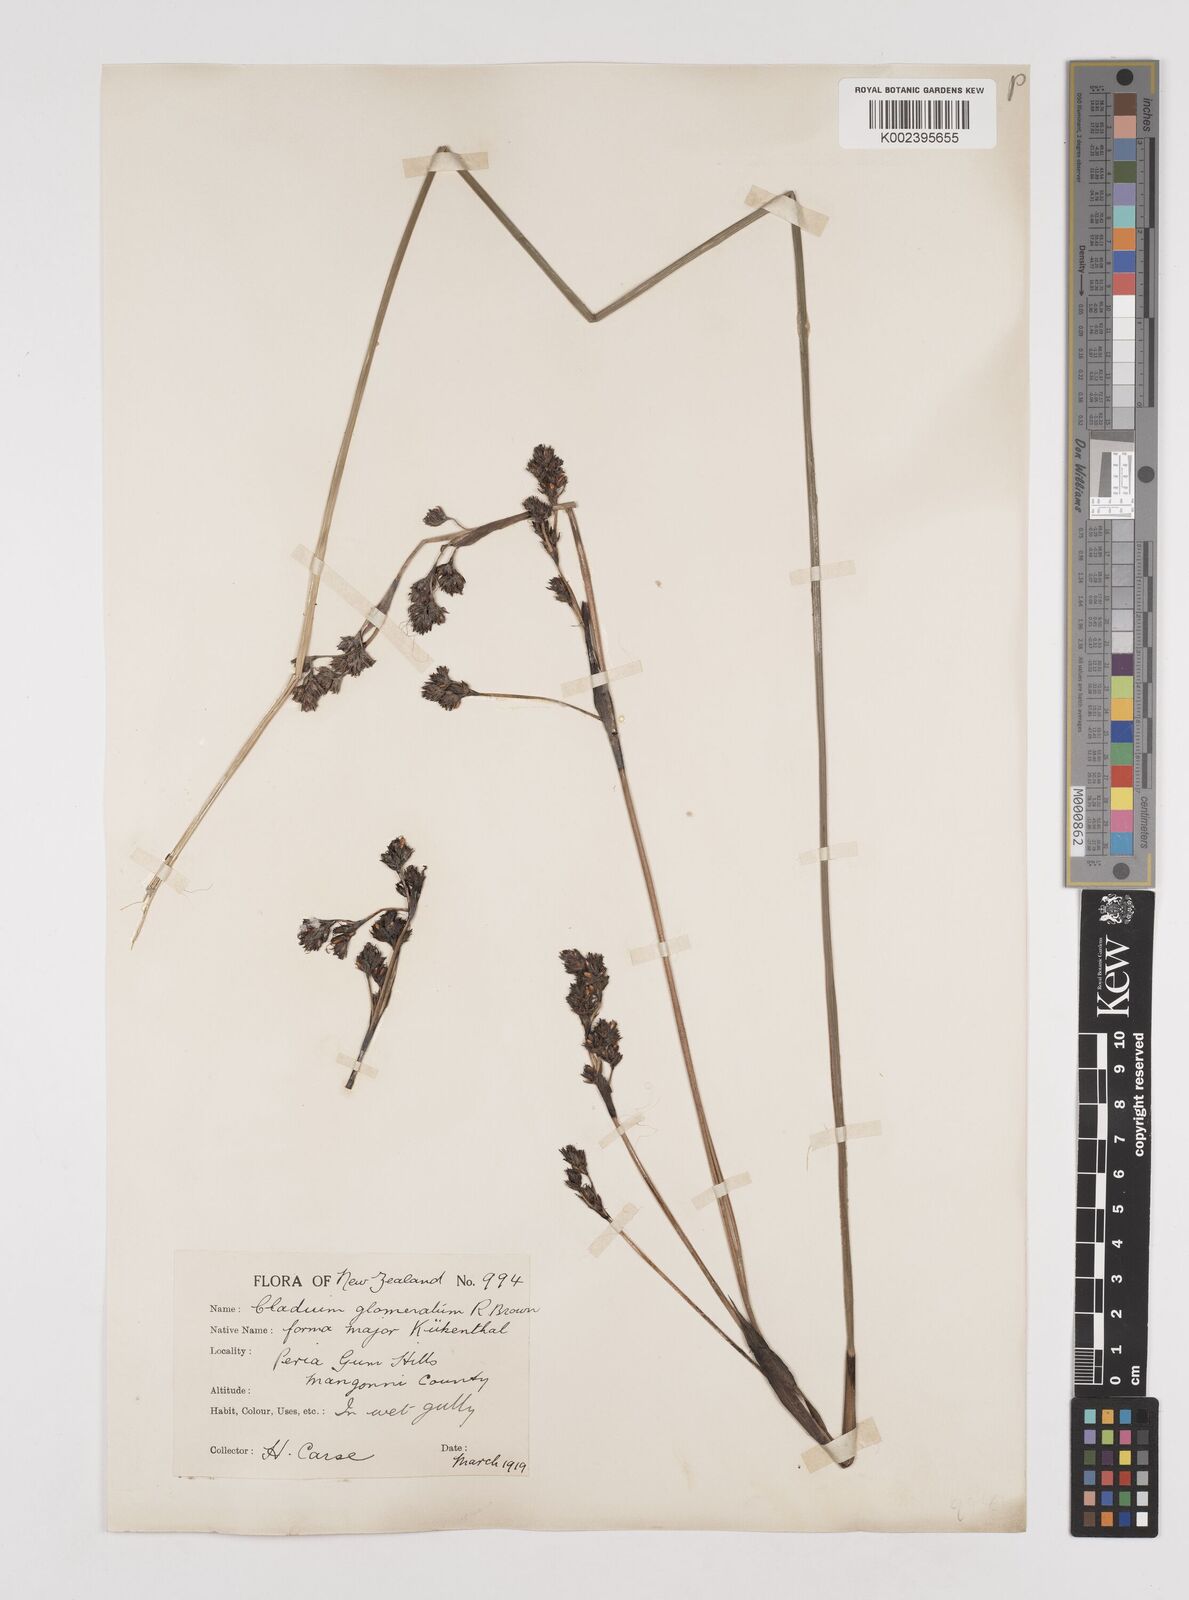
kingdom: Plantae
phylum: Tracheophyta
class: Liliopsida
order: Poales
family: Cyperaceae
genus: Machaerina
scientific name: Machaerina rubiginosa
